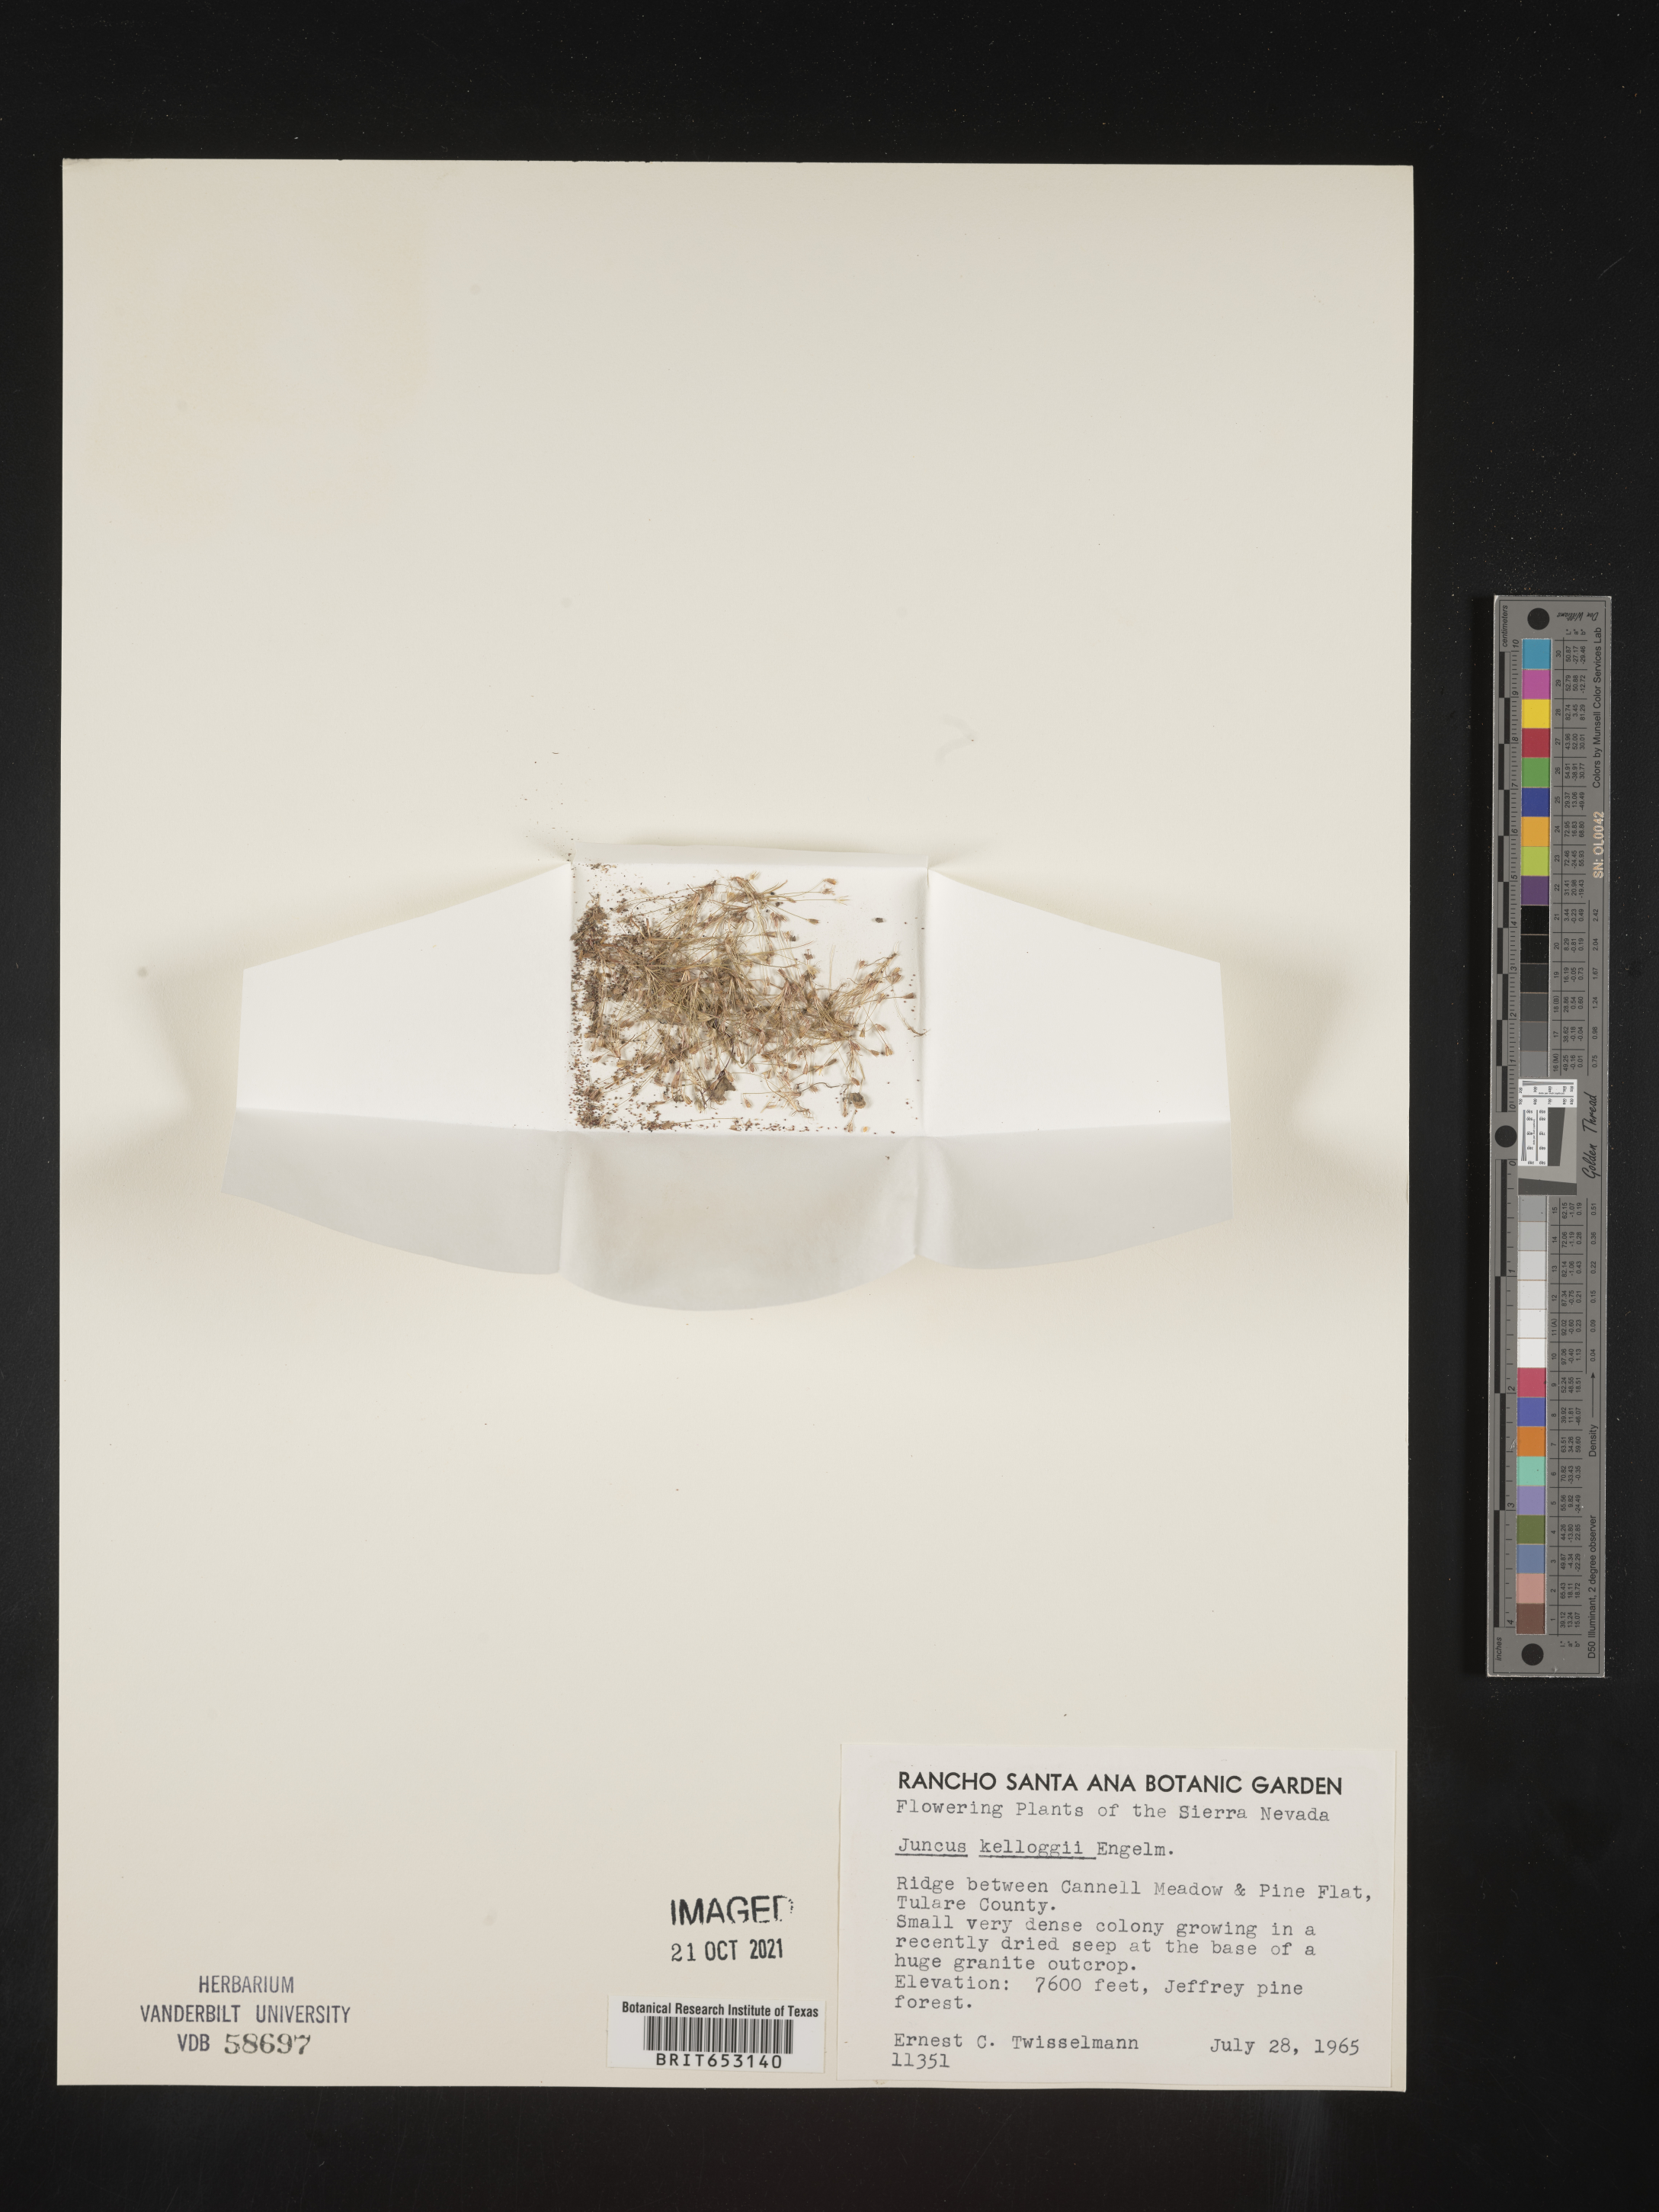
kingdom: Plantae
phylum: Tracheophyta
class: Liliopsida
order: Poales
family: Juncaceae
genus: Juncus
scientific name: Juncus kelloggii
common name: Kellogg's dwarf rush
